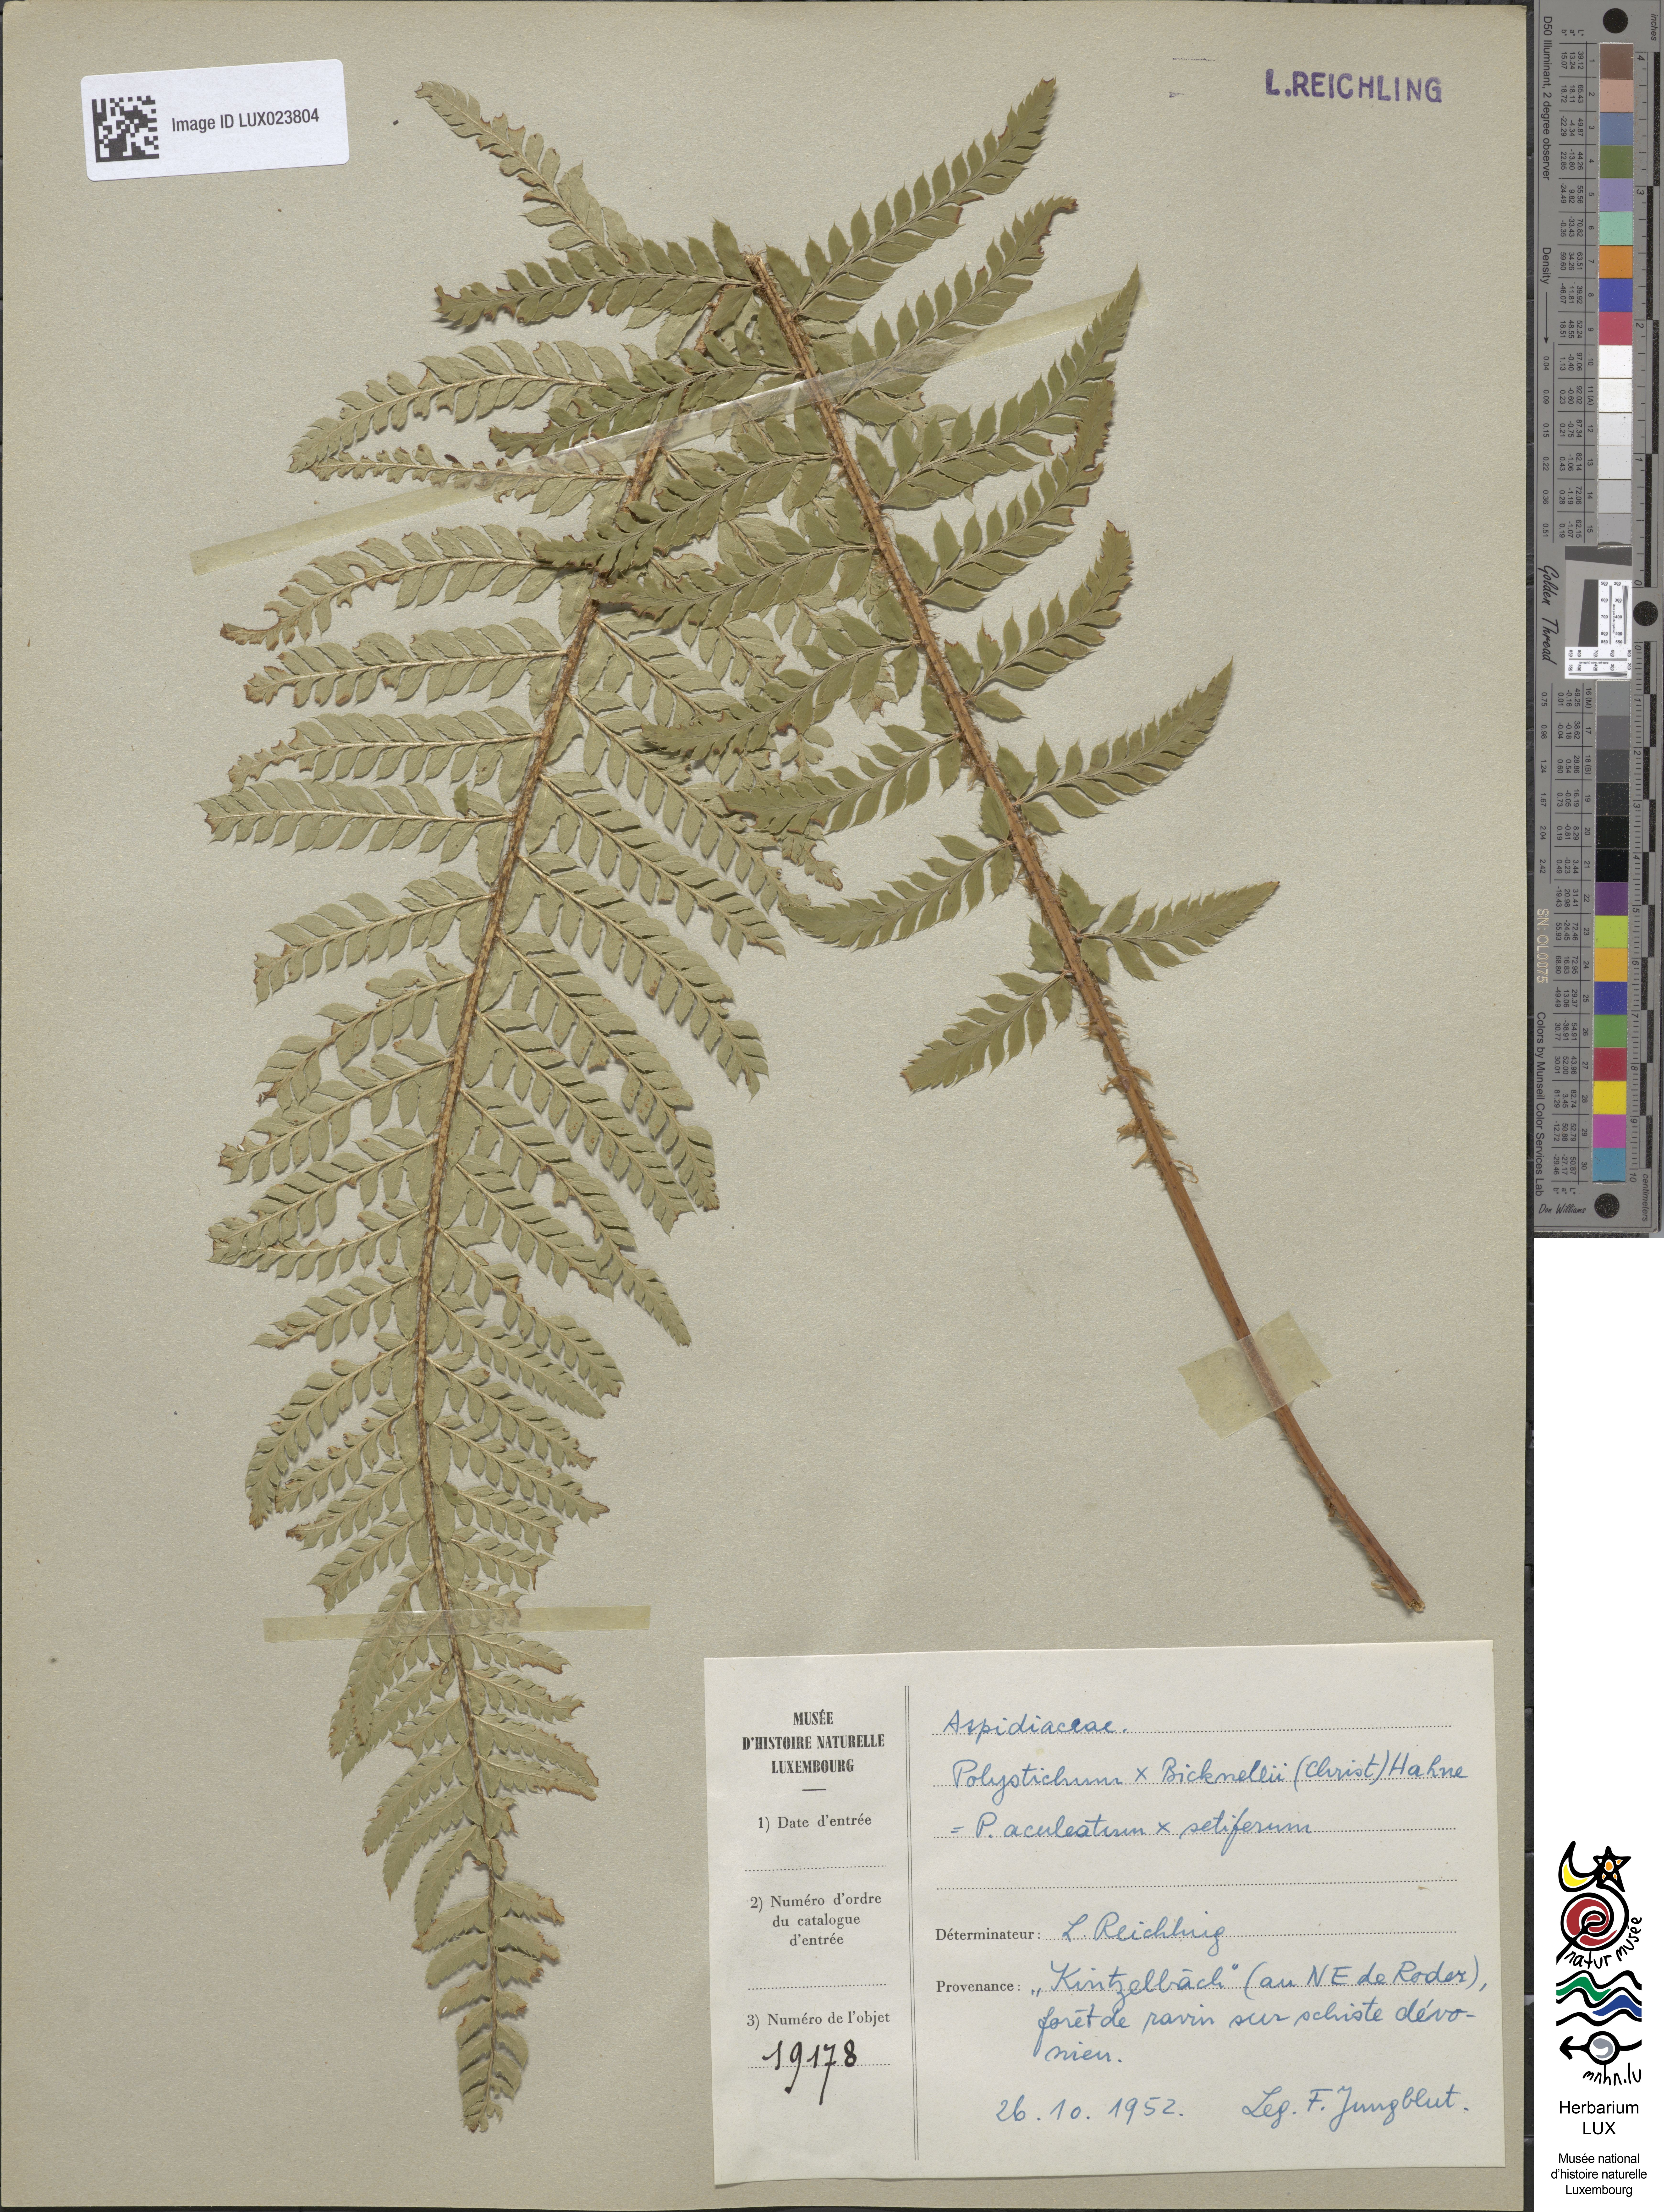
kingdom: Plantae
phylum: Tracheophyta
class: Polypodiopsida
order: Polypodiales
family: Dryopteridaceae
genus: Polystichum
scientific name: Polystichum
